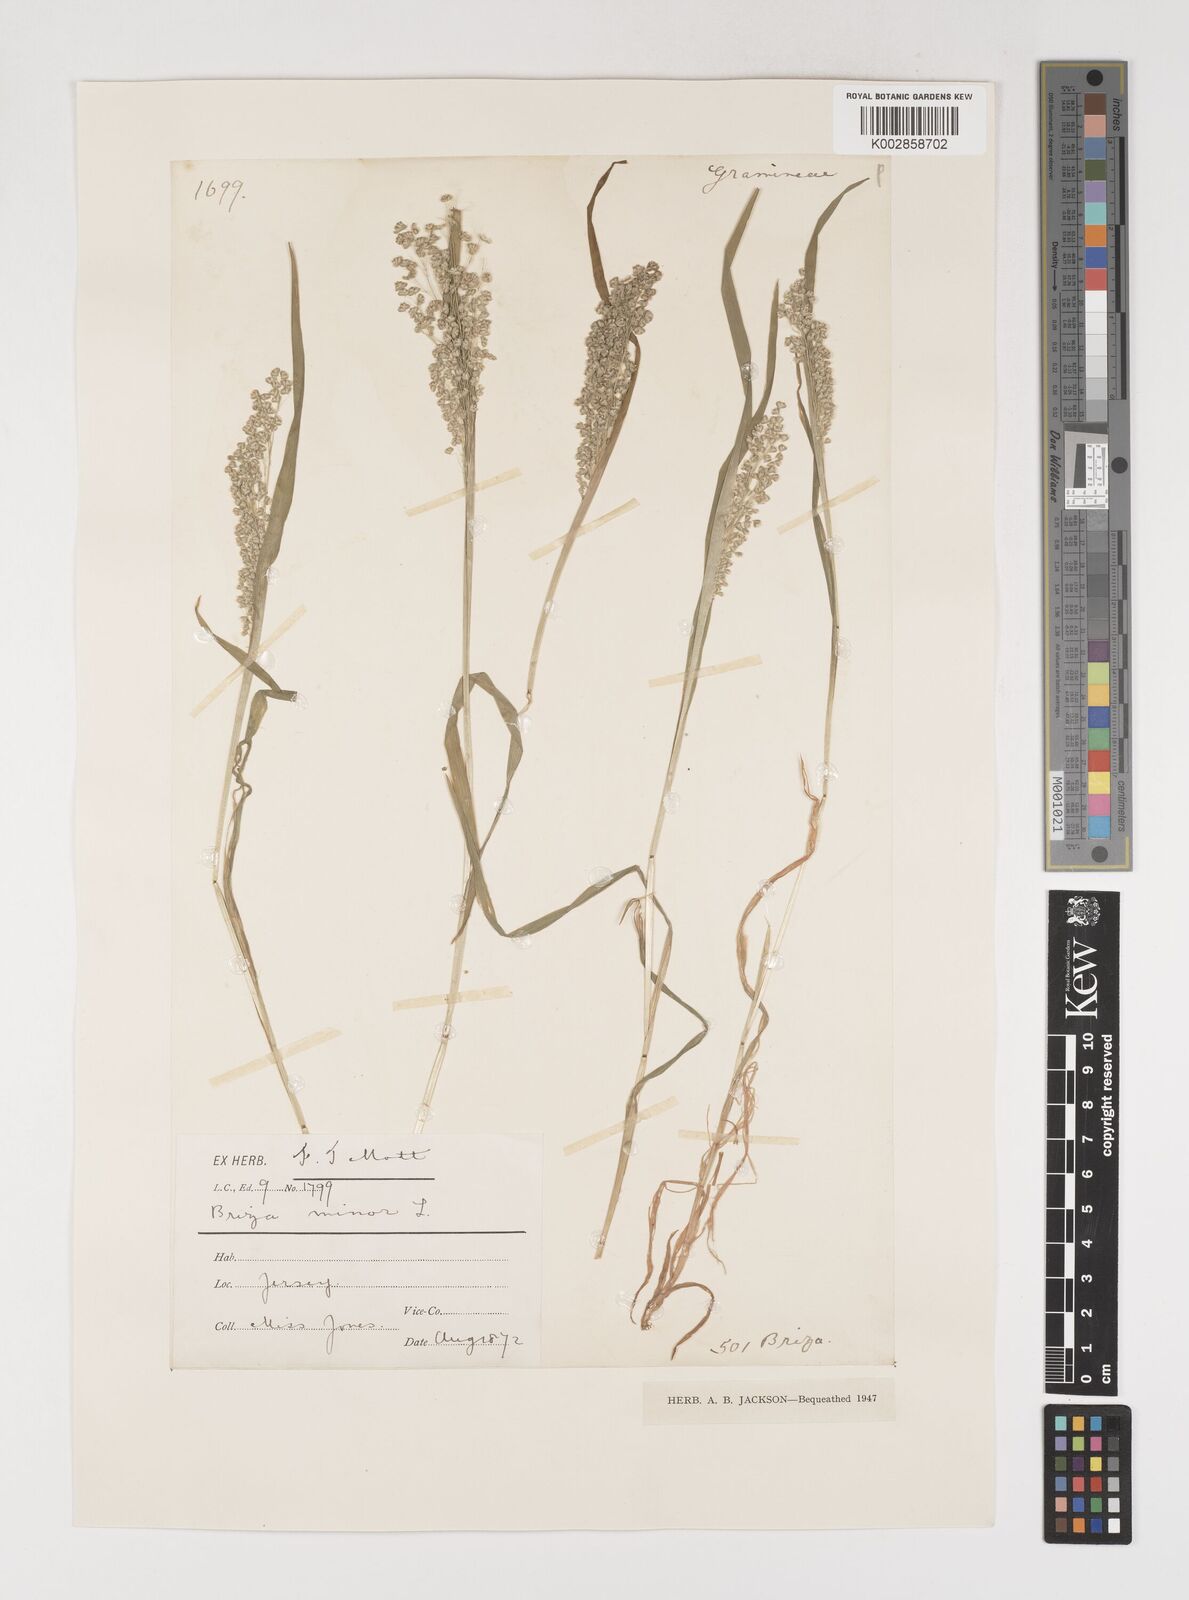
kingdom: Plantae
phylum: Tracheophyta
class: Liliopsida
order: Poales
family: Poaceae
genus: Briza
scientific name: Briza minor
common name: Lesser quaking-grass
